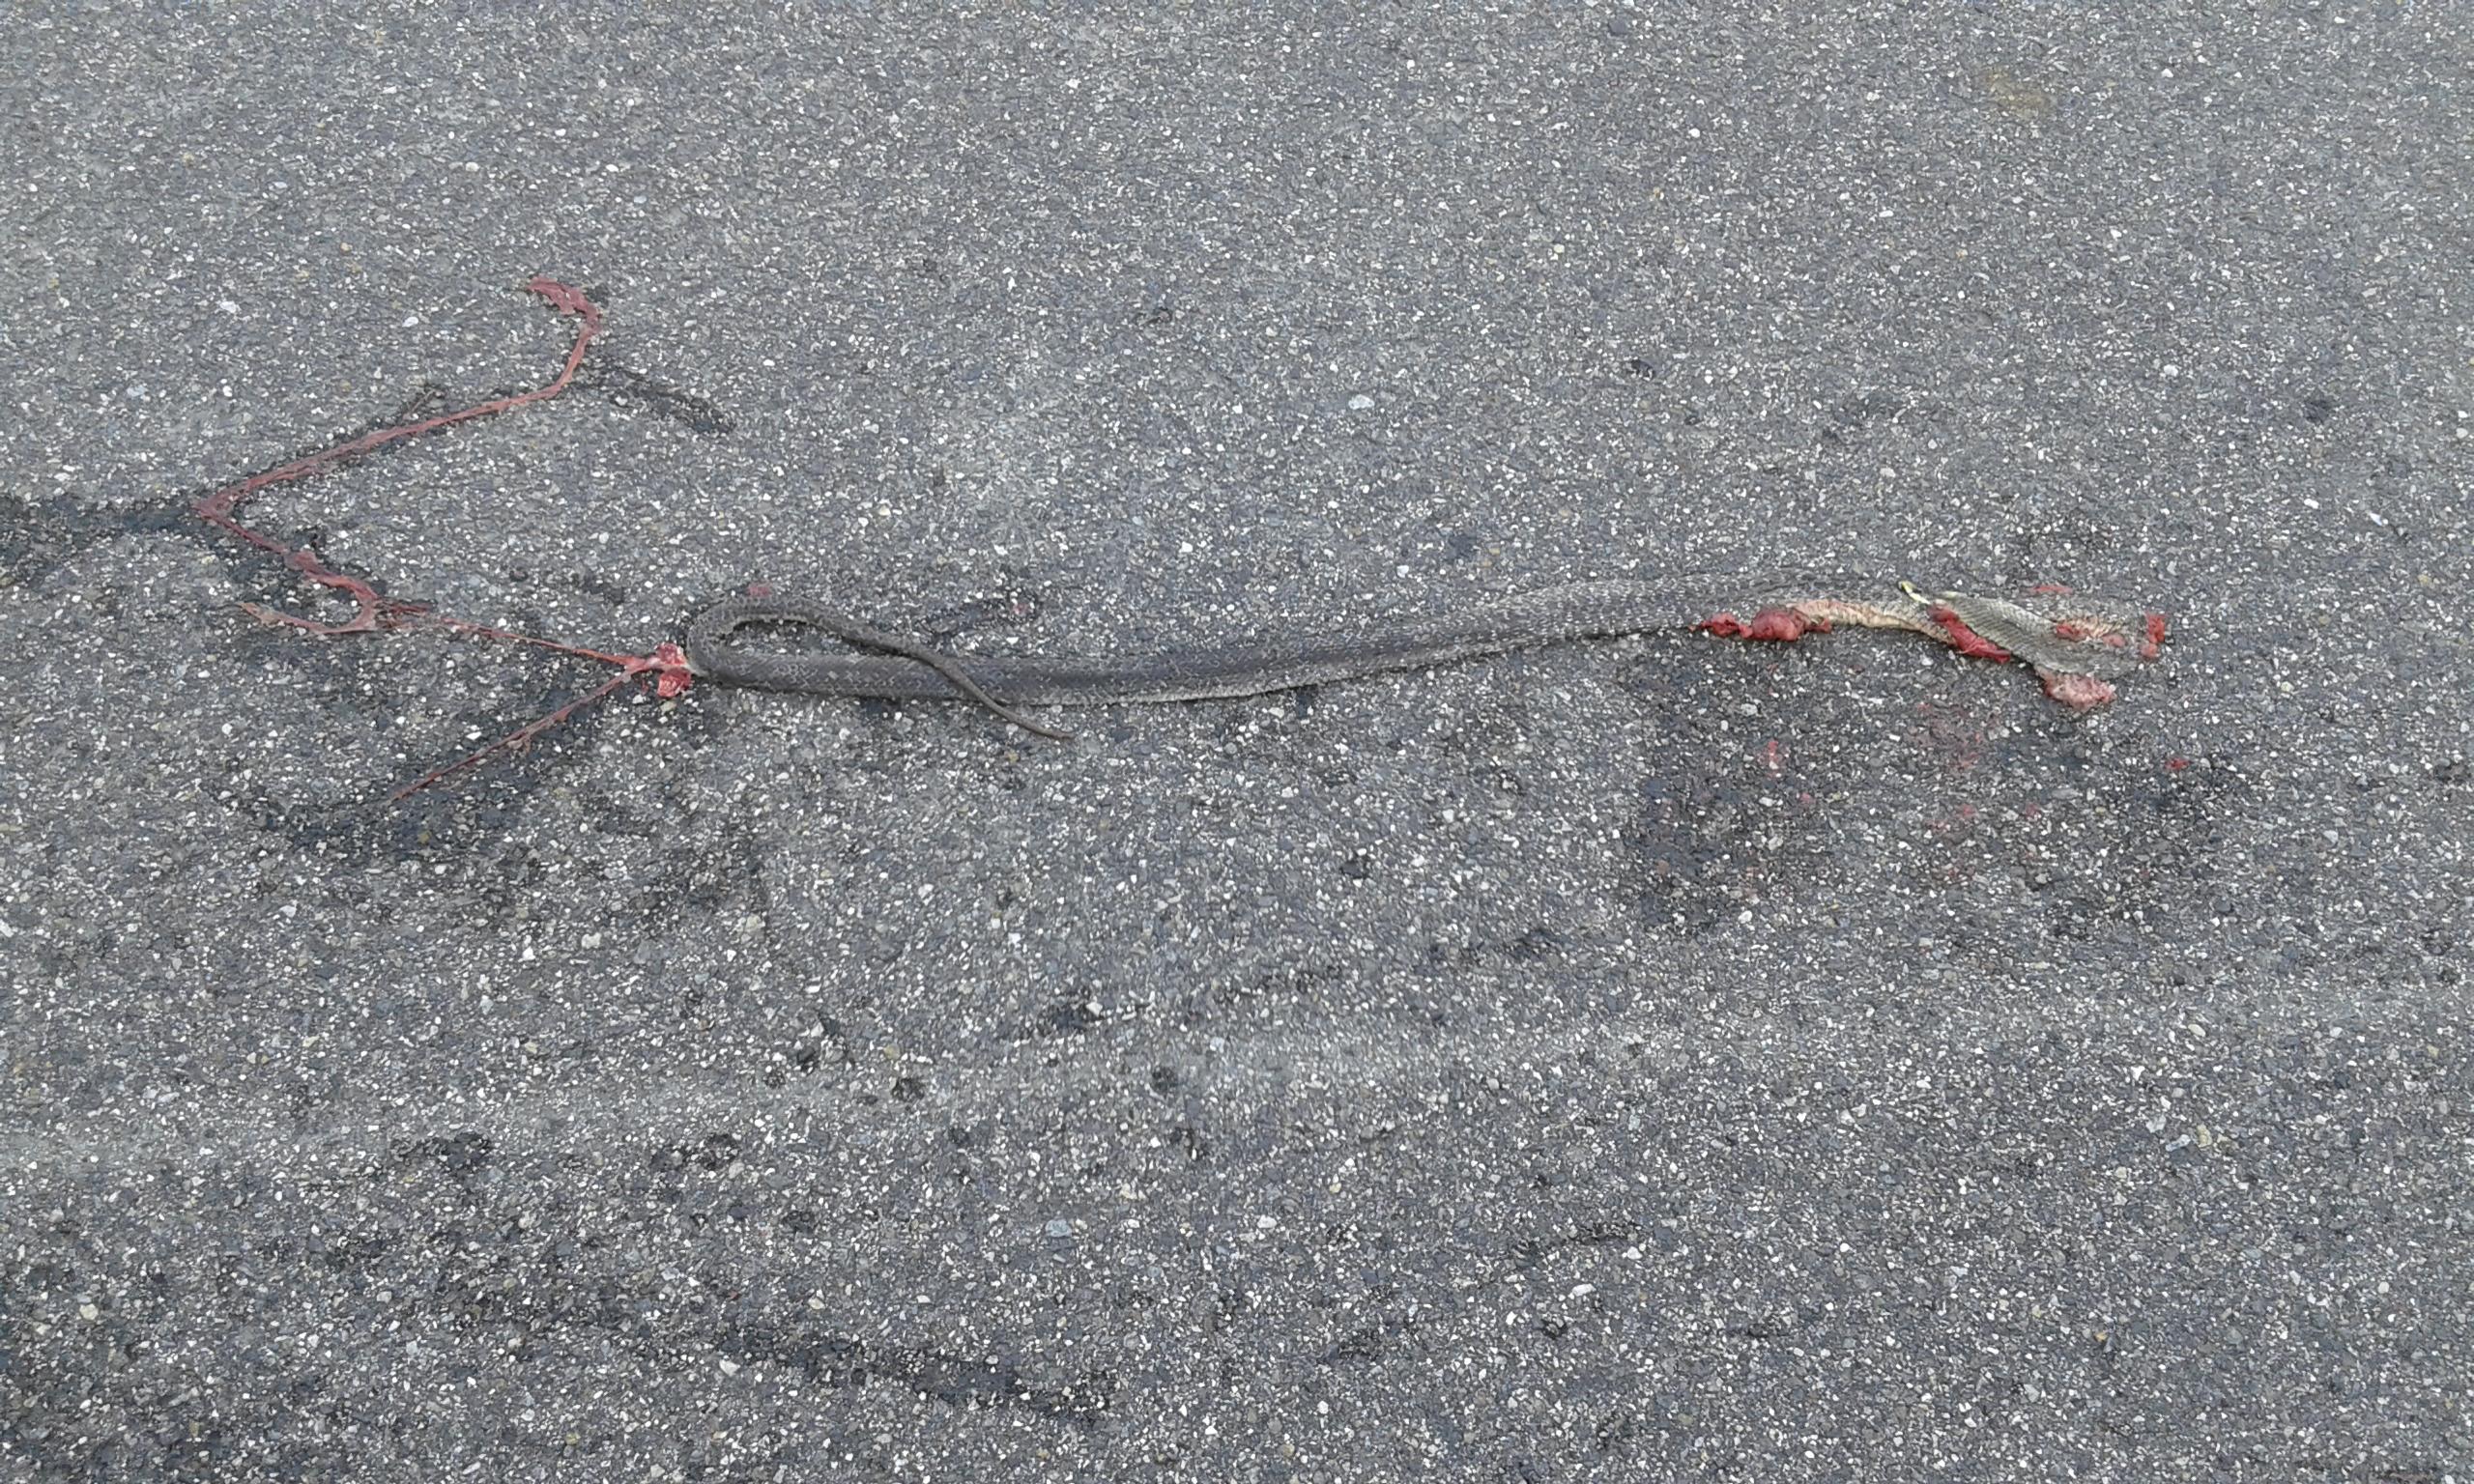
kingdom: Animalia
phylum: Chordata
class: Squamata
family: Colubridae
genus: Zamenis
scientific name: Zamenis longissimus
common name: Aesculapean snake
